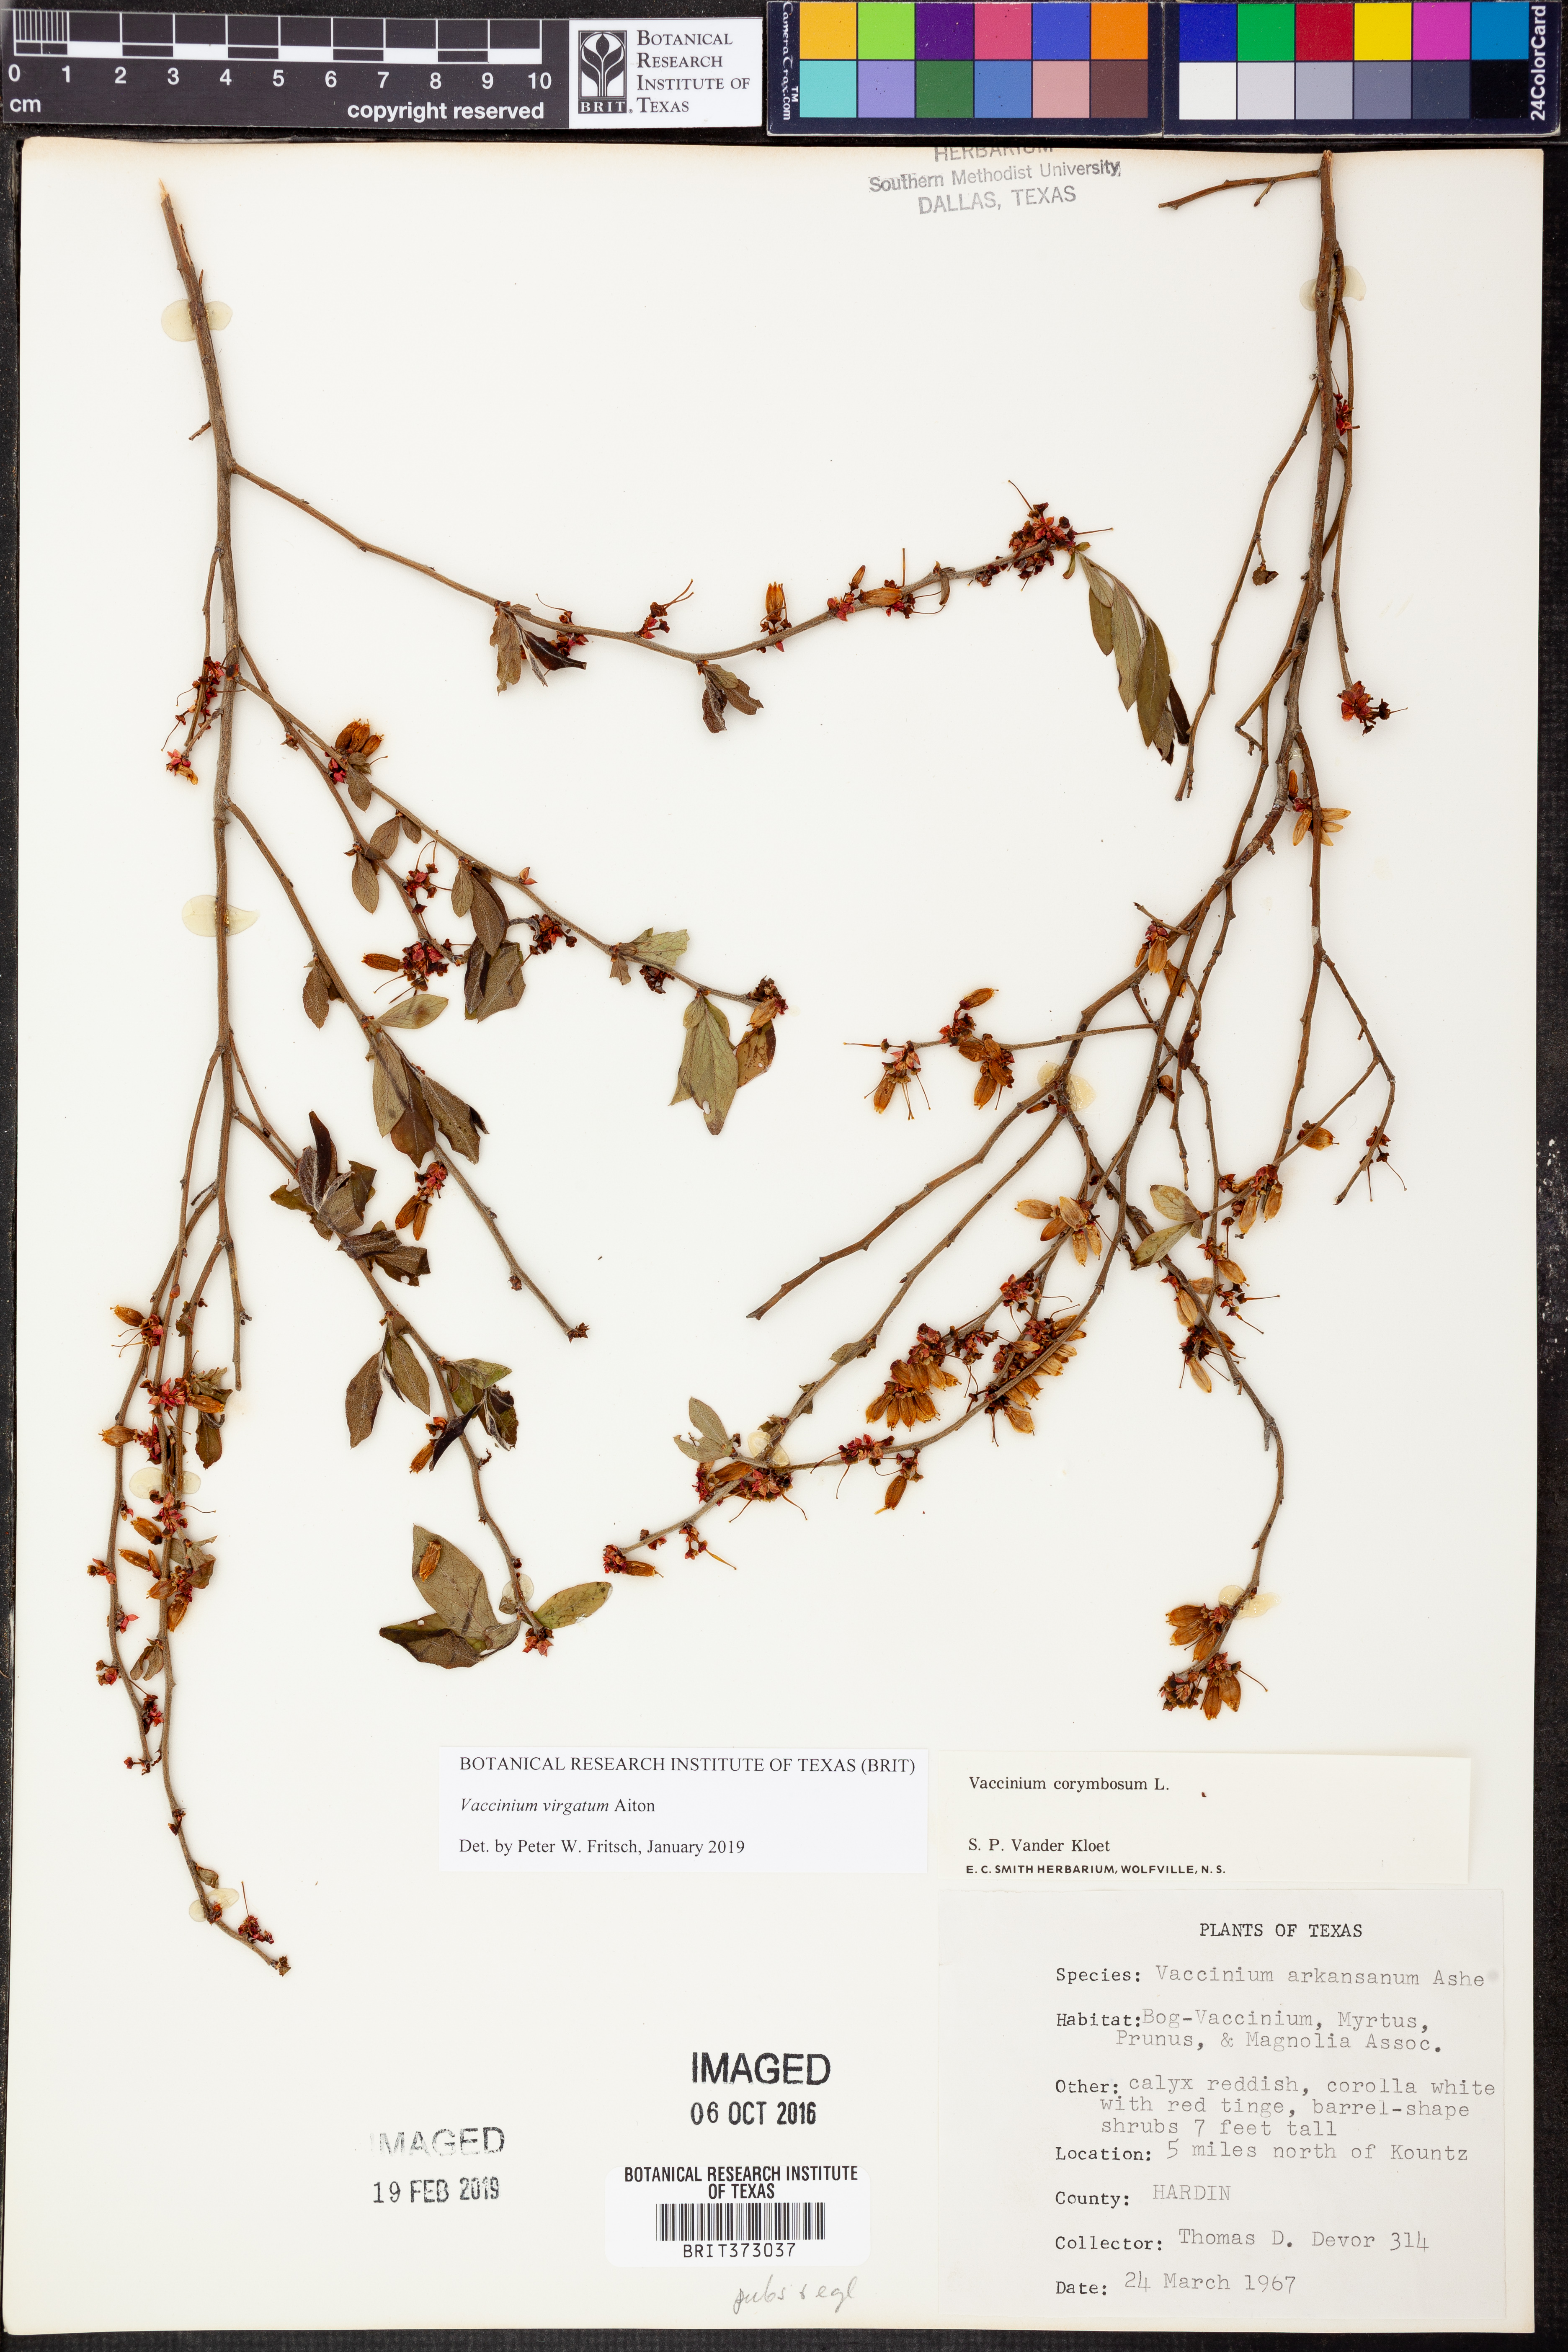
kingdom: Plantae
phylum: Tracheophyta
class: Magnoliopsida
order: Ericales
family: Ericaceae
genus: Vaccinium
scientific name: Vaccinium corymbosum
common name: Blueberry
